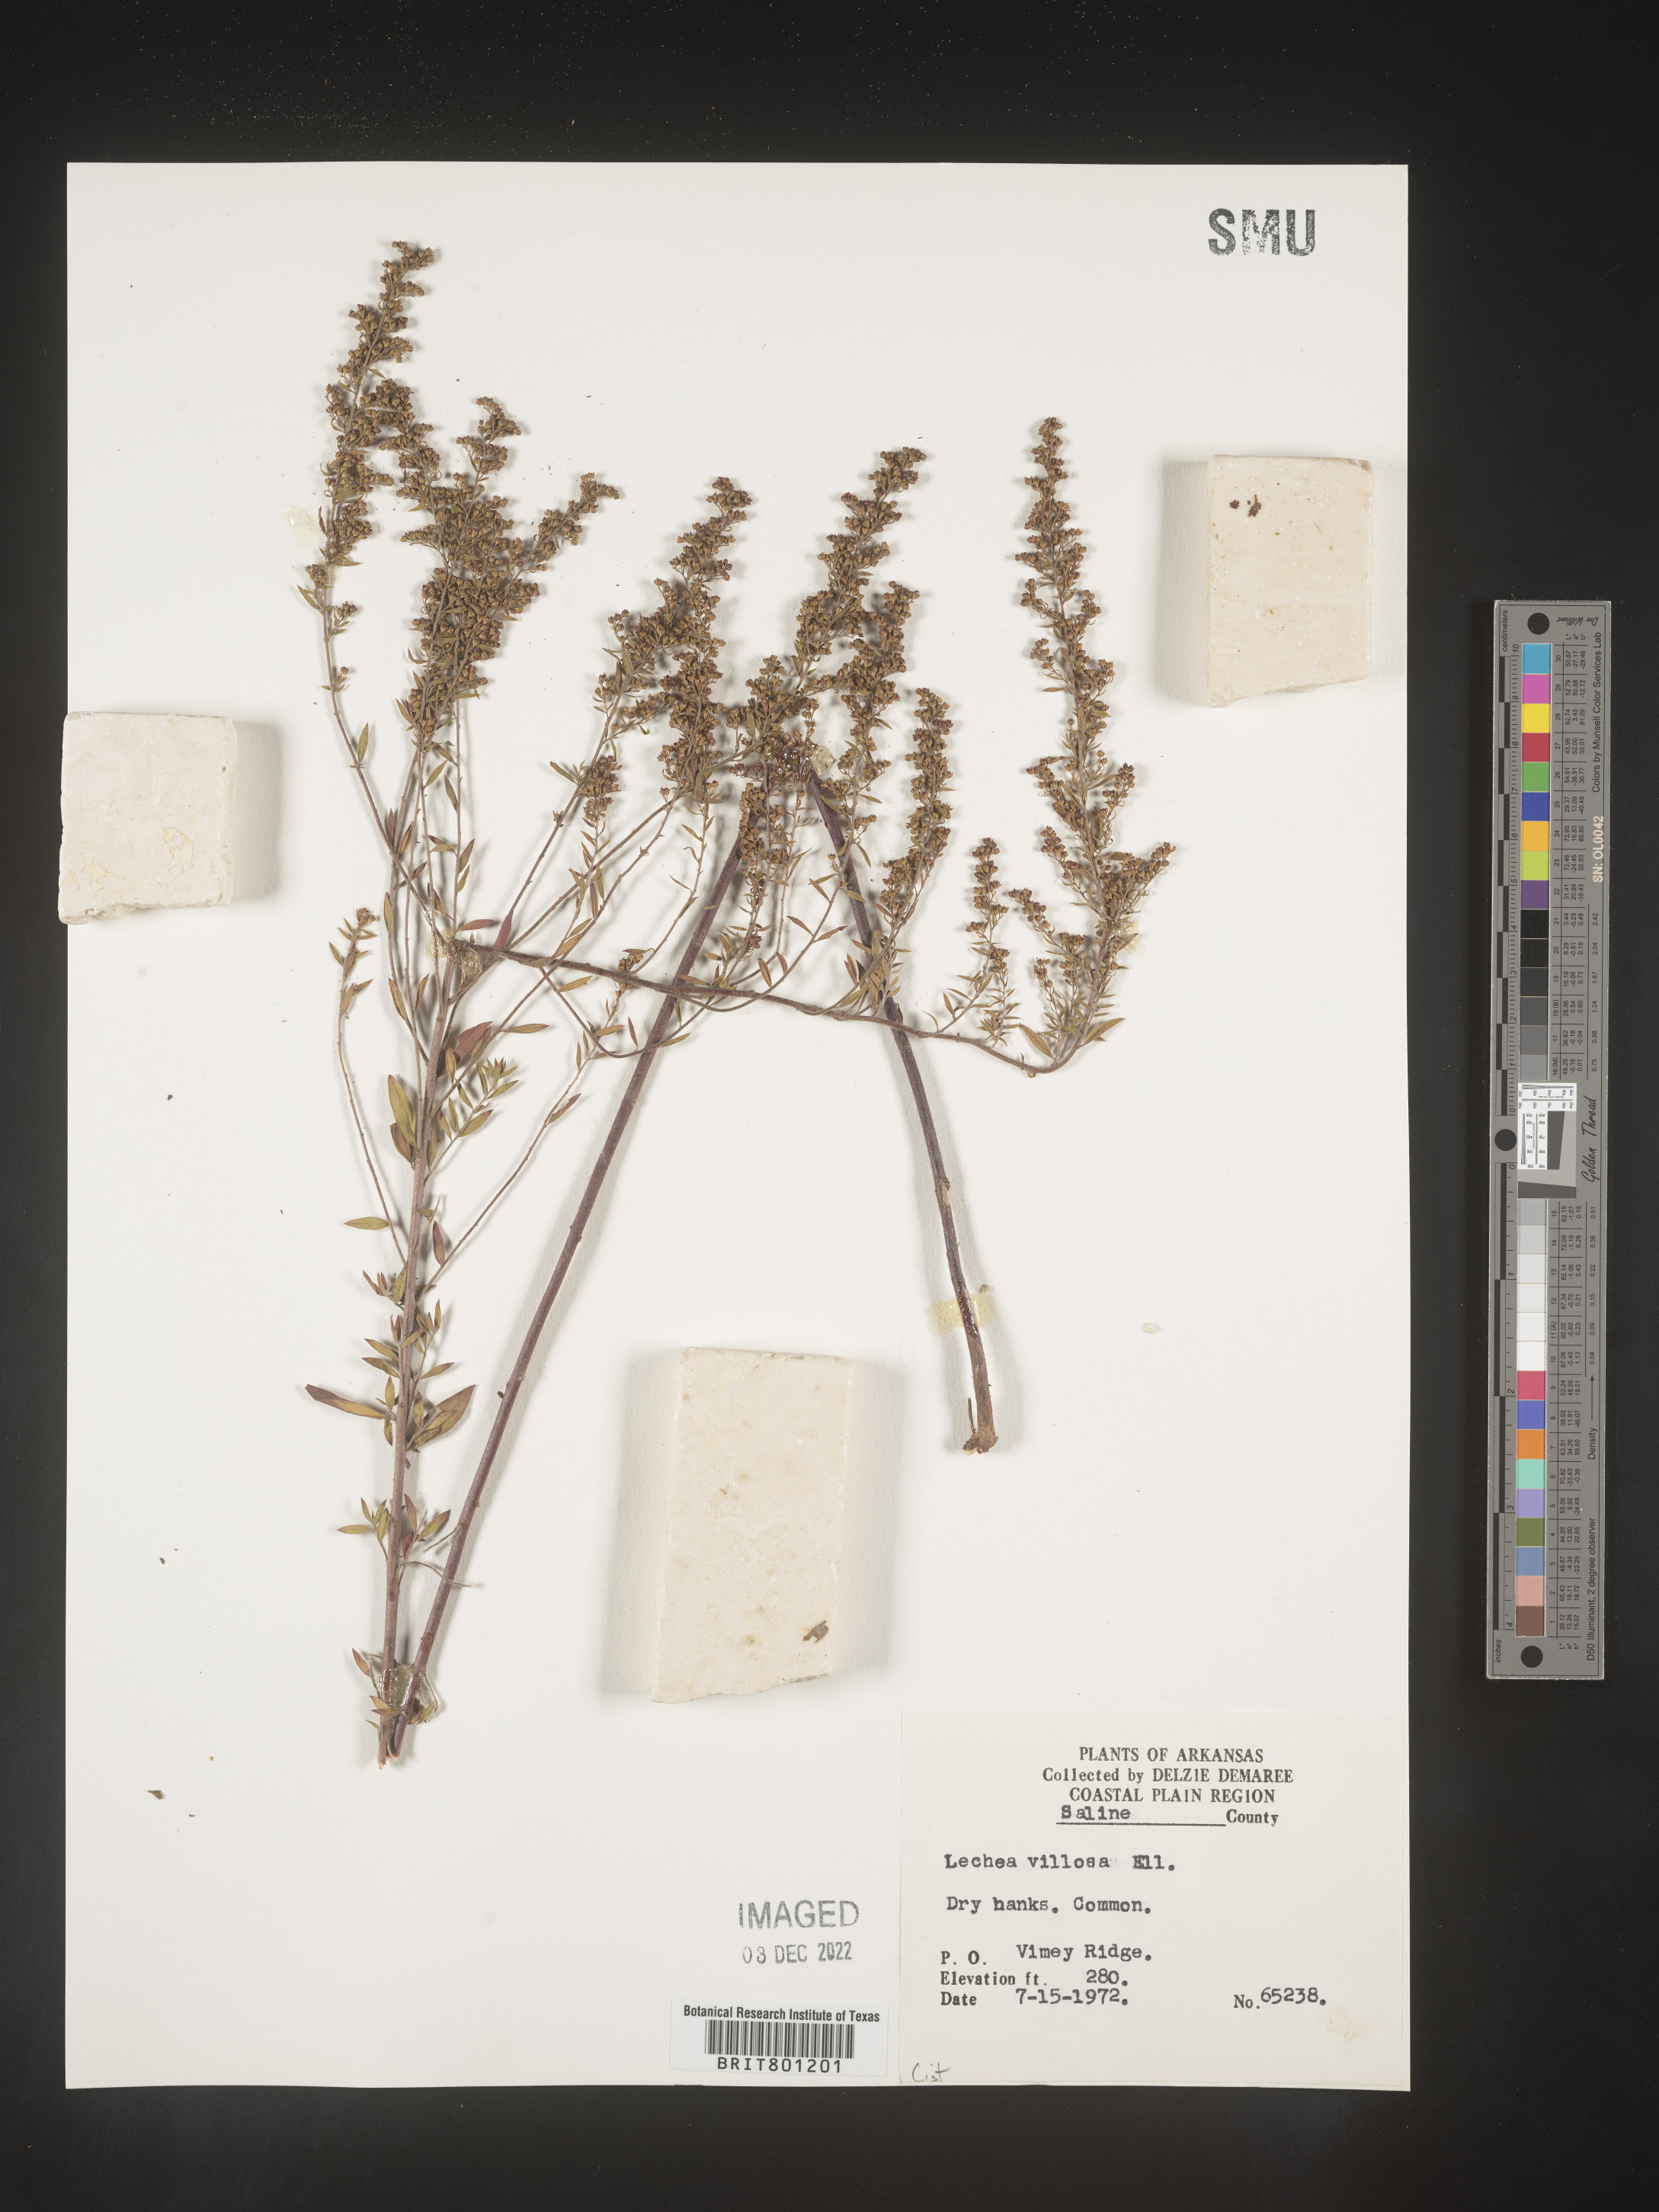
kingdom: Plantae
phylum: Tracheophyta
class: Magnoliopsida
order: Malvales
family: Cistaceae
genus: Lechea
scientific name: Lechea mucronata
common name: Hairy pinweed
